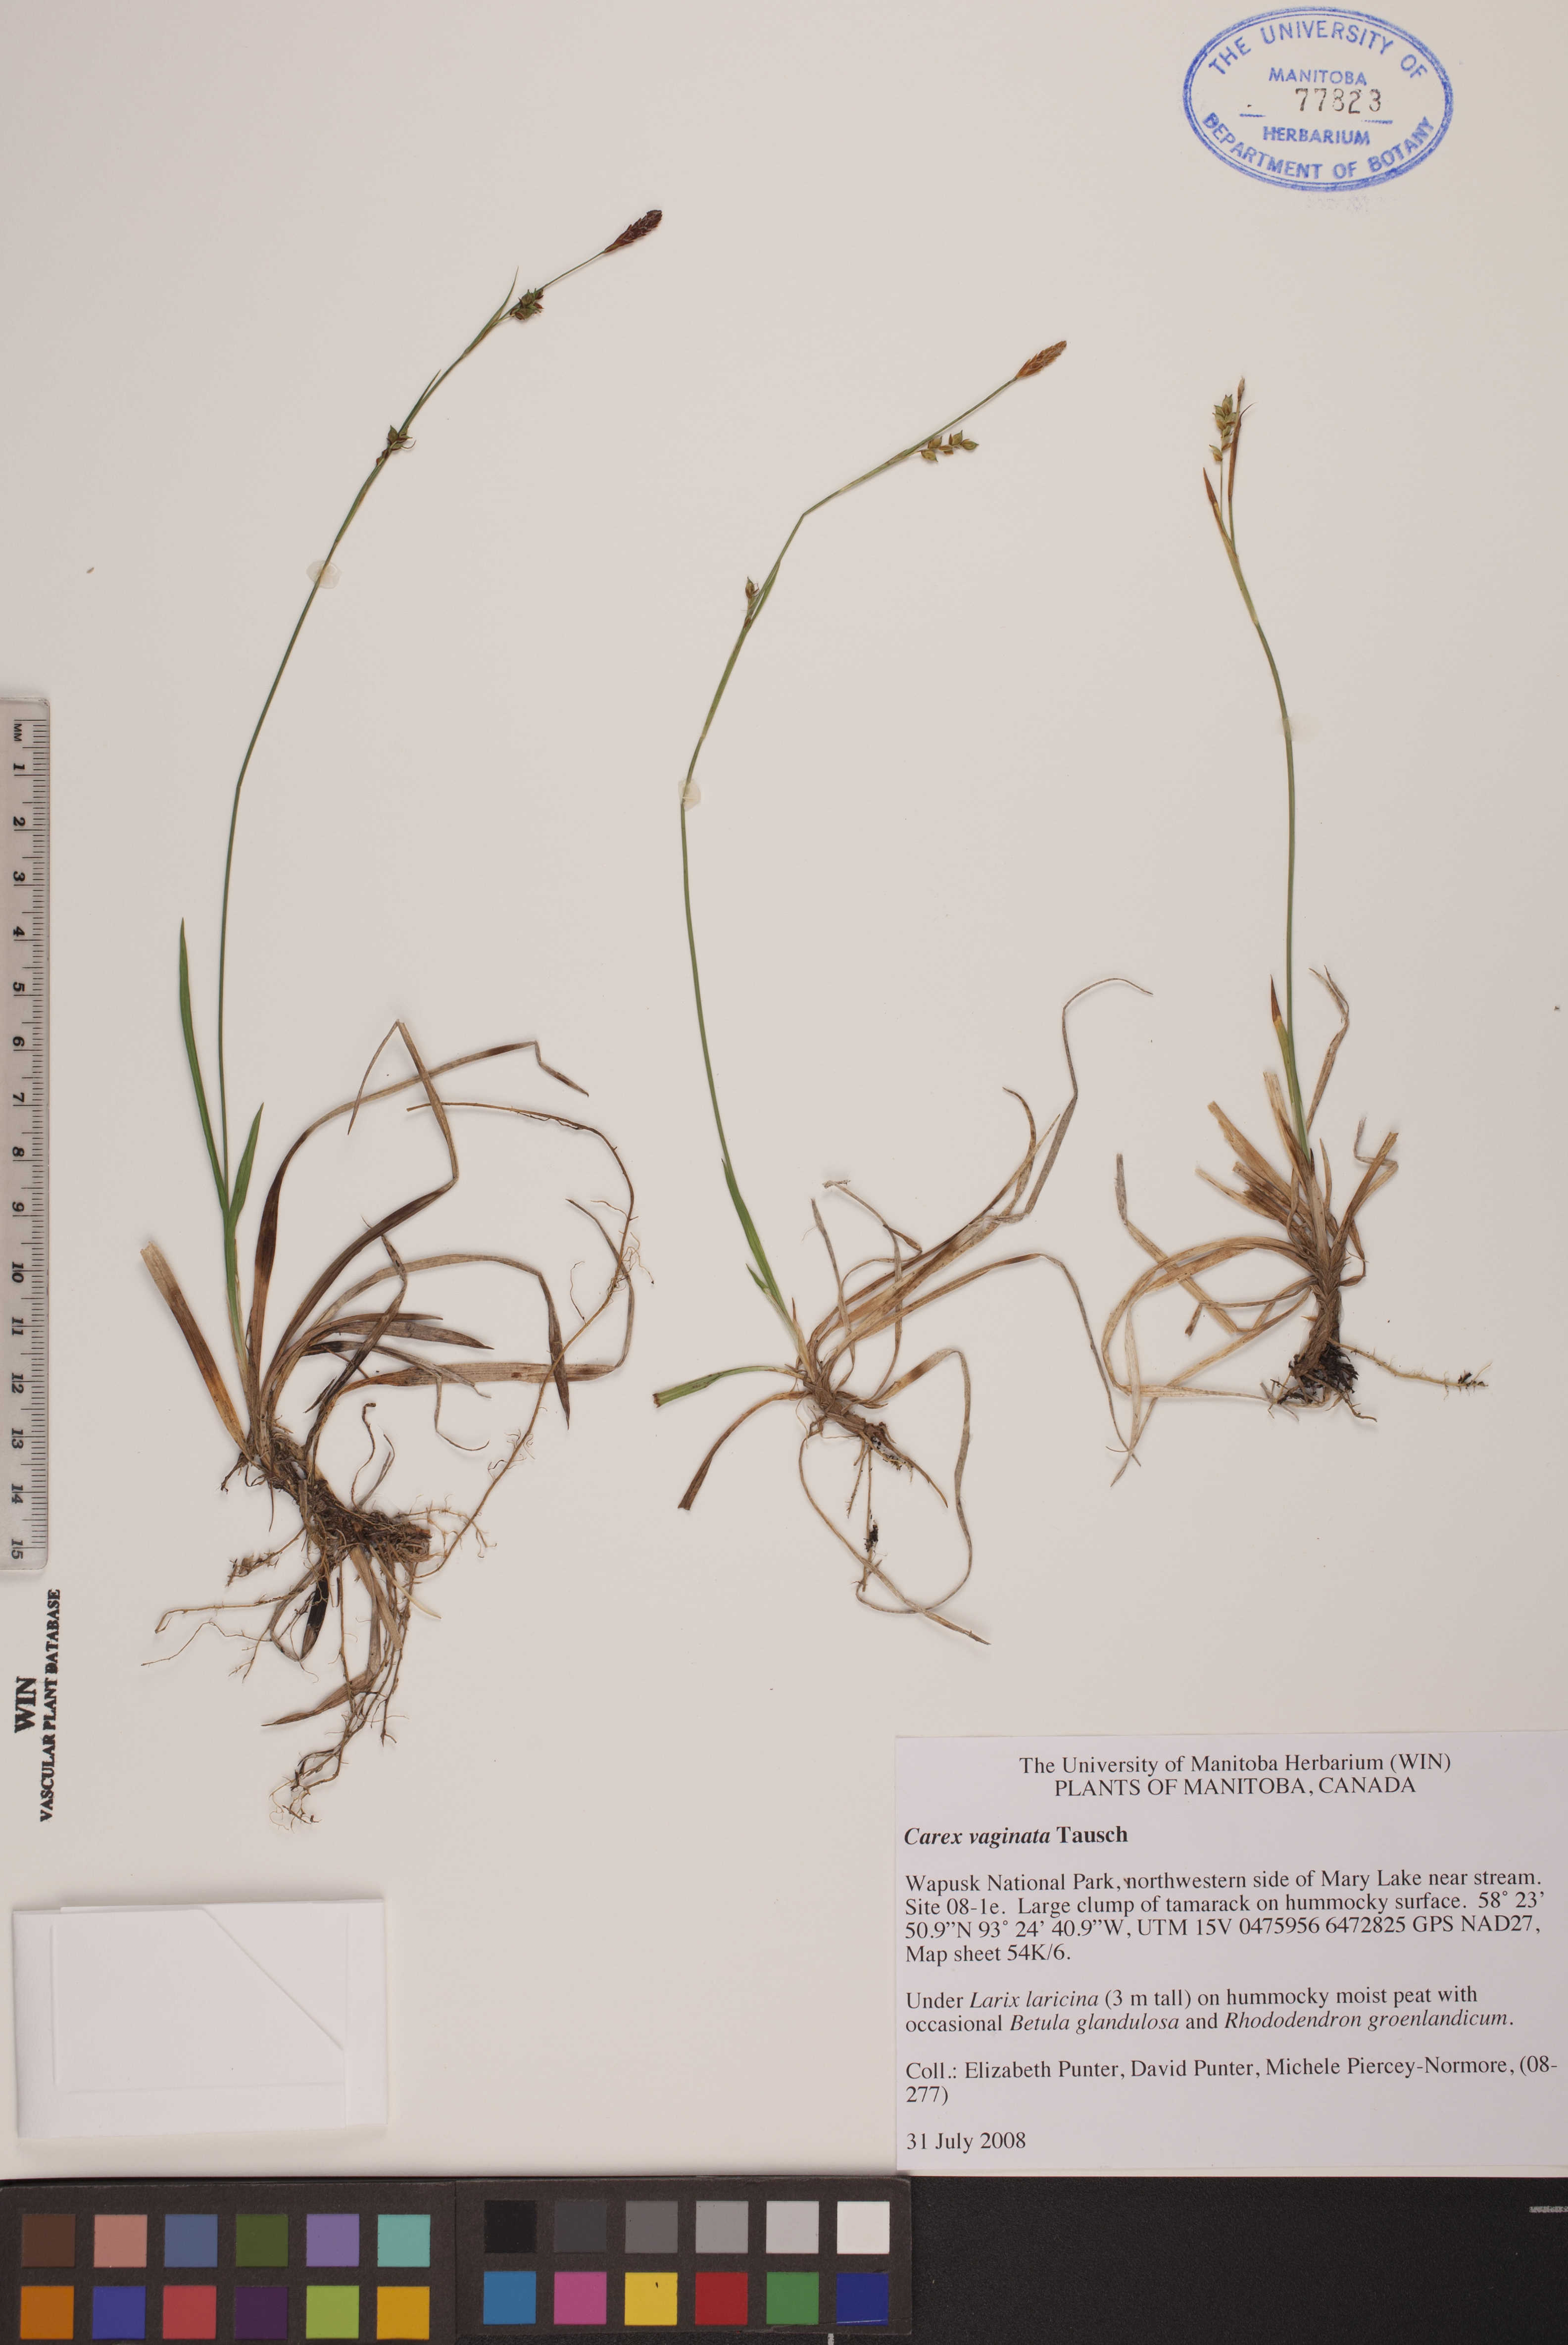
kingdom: Plantae
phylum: Tracheophyta
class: Liliopsida
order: Poales
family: Cyperaceae
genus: Carex
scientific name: Carex vaginata
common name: Sheathed sedge
